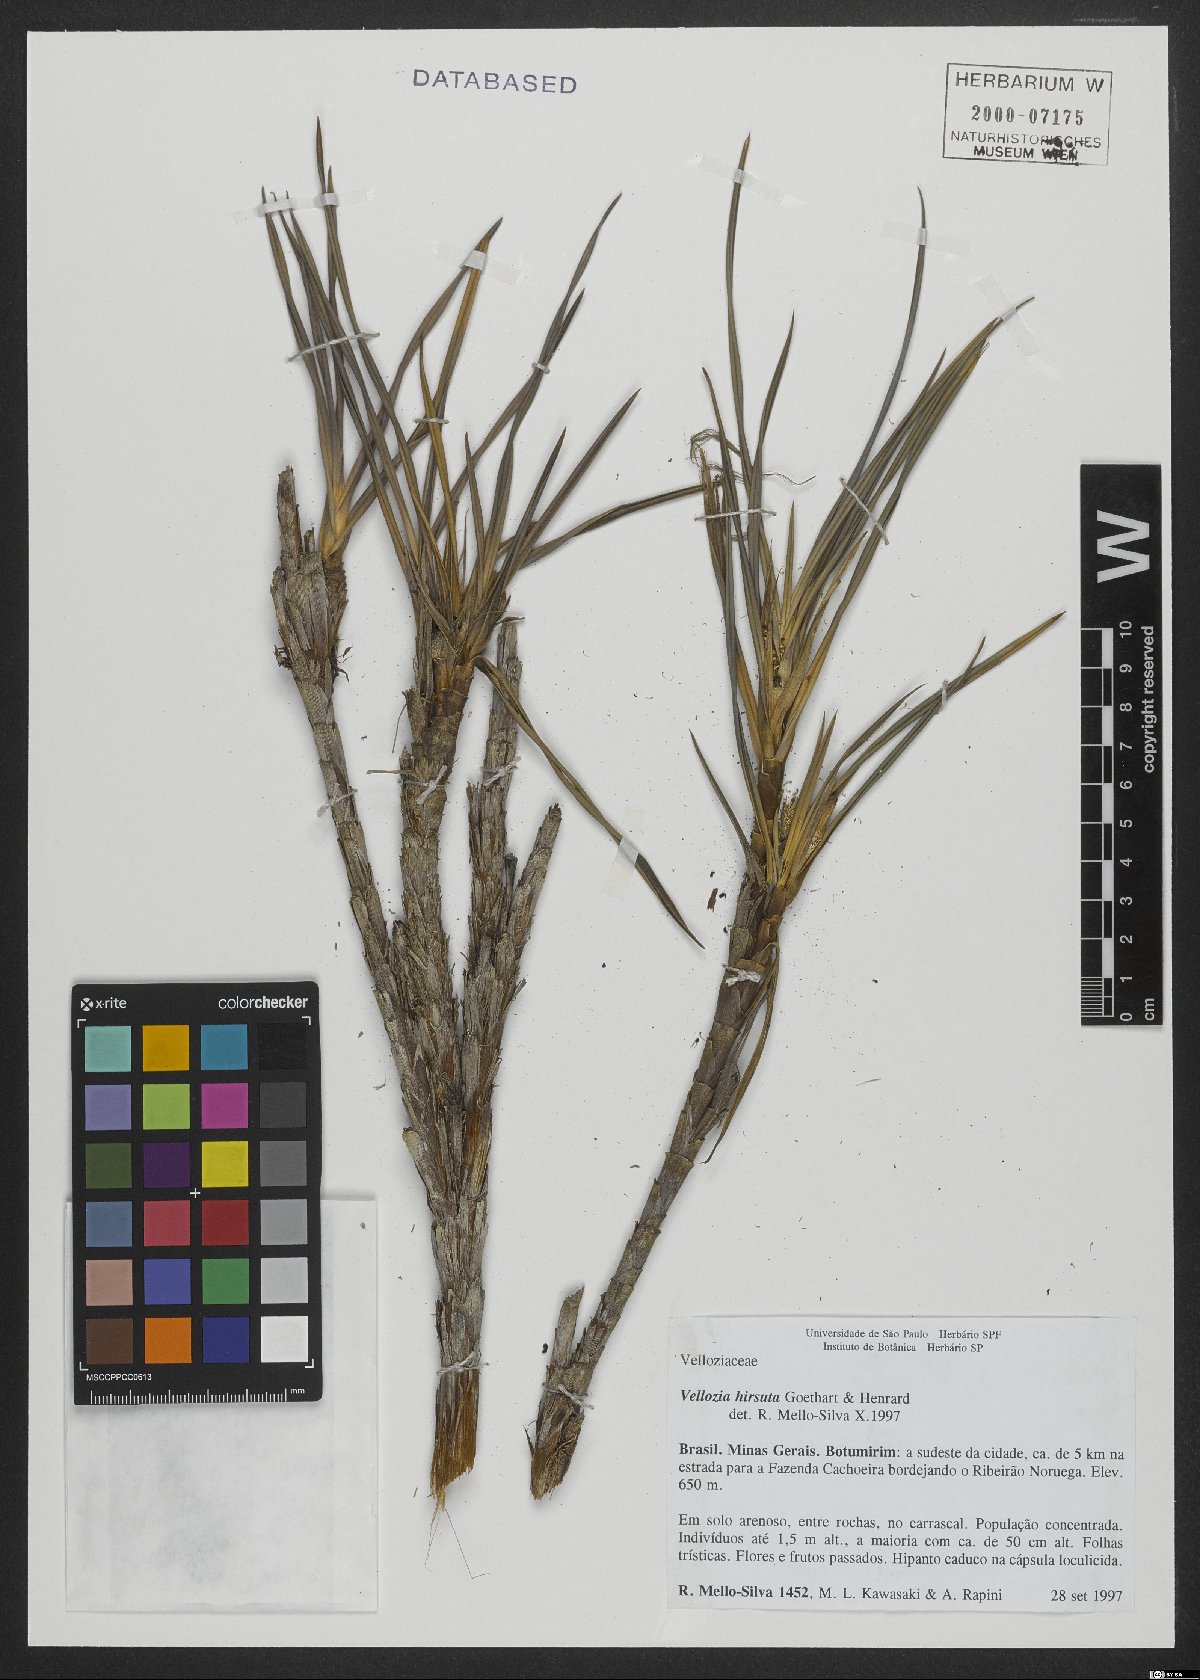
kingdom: Plantae
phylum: Tracheophyta
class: Liliopsida
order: Pandanales
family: Velloziaceae
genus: Vellozia
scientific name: Vellozia hirsuta
